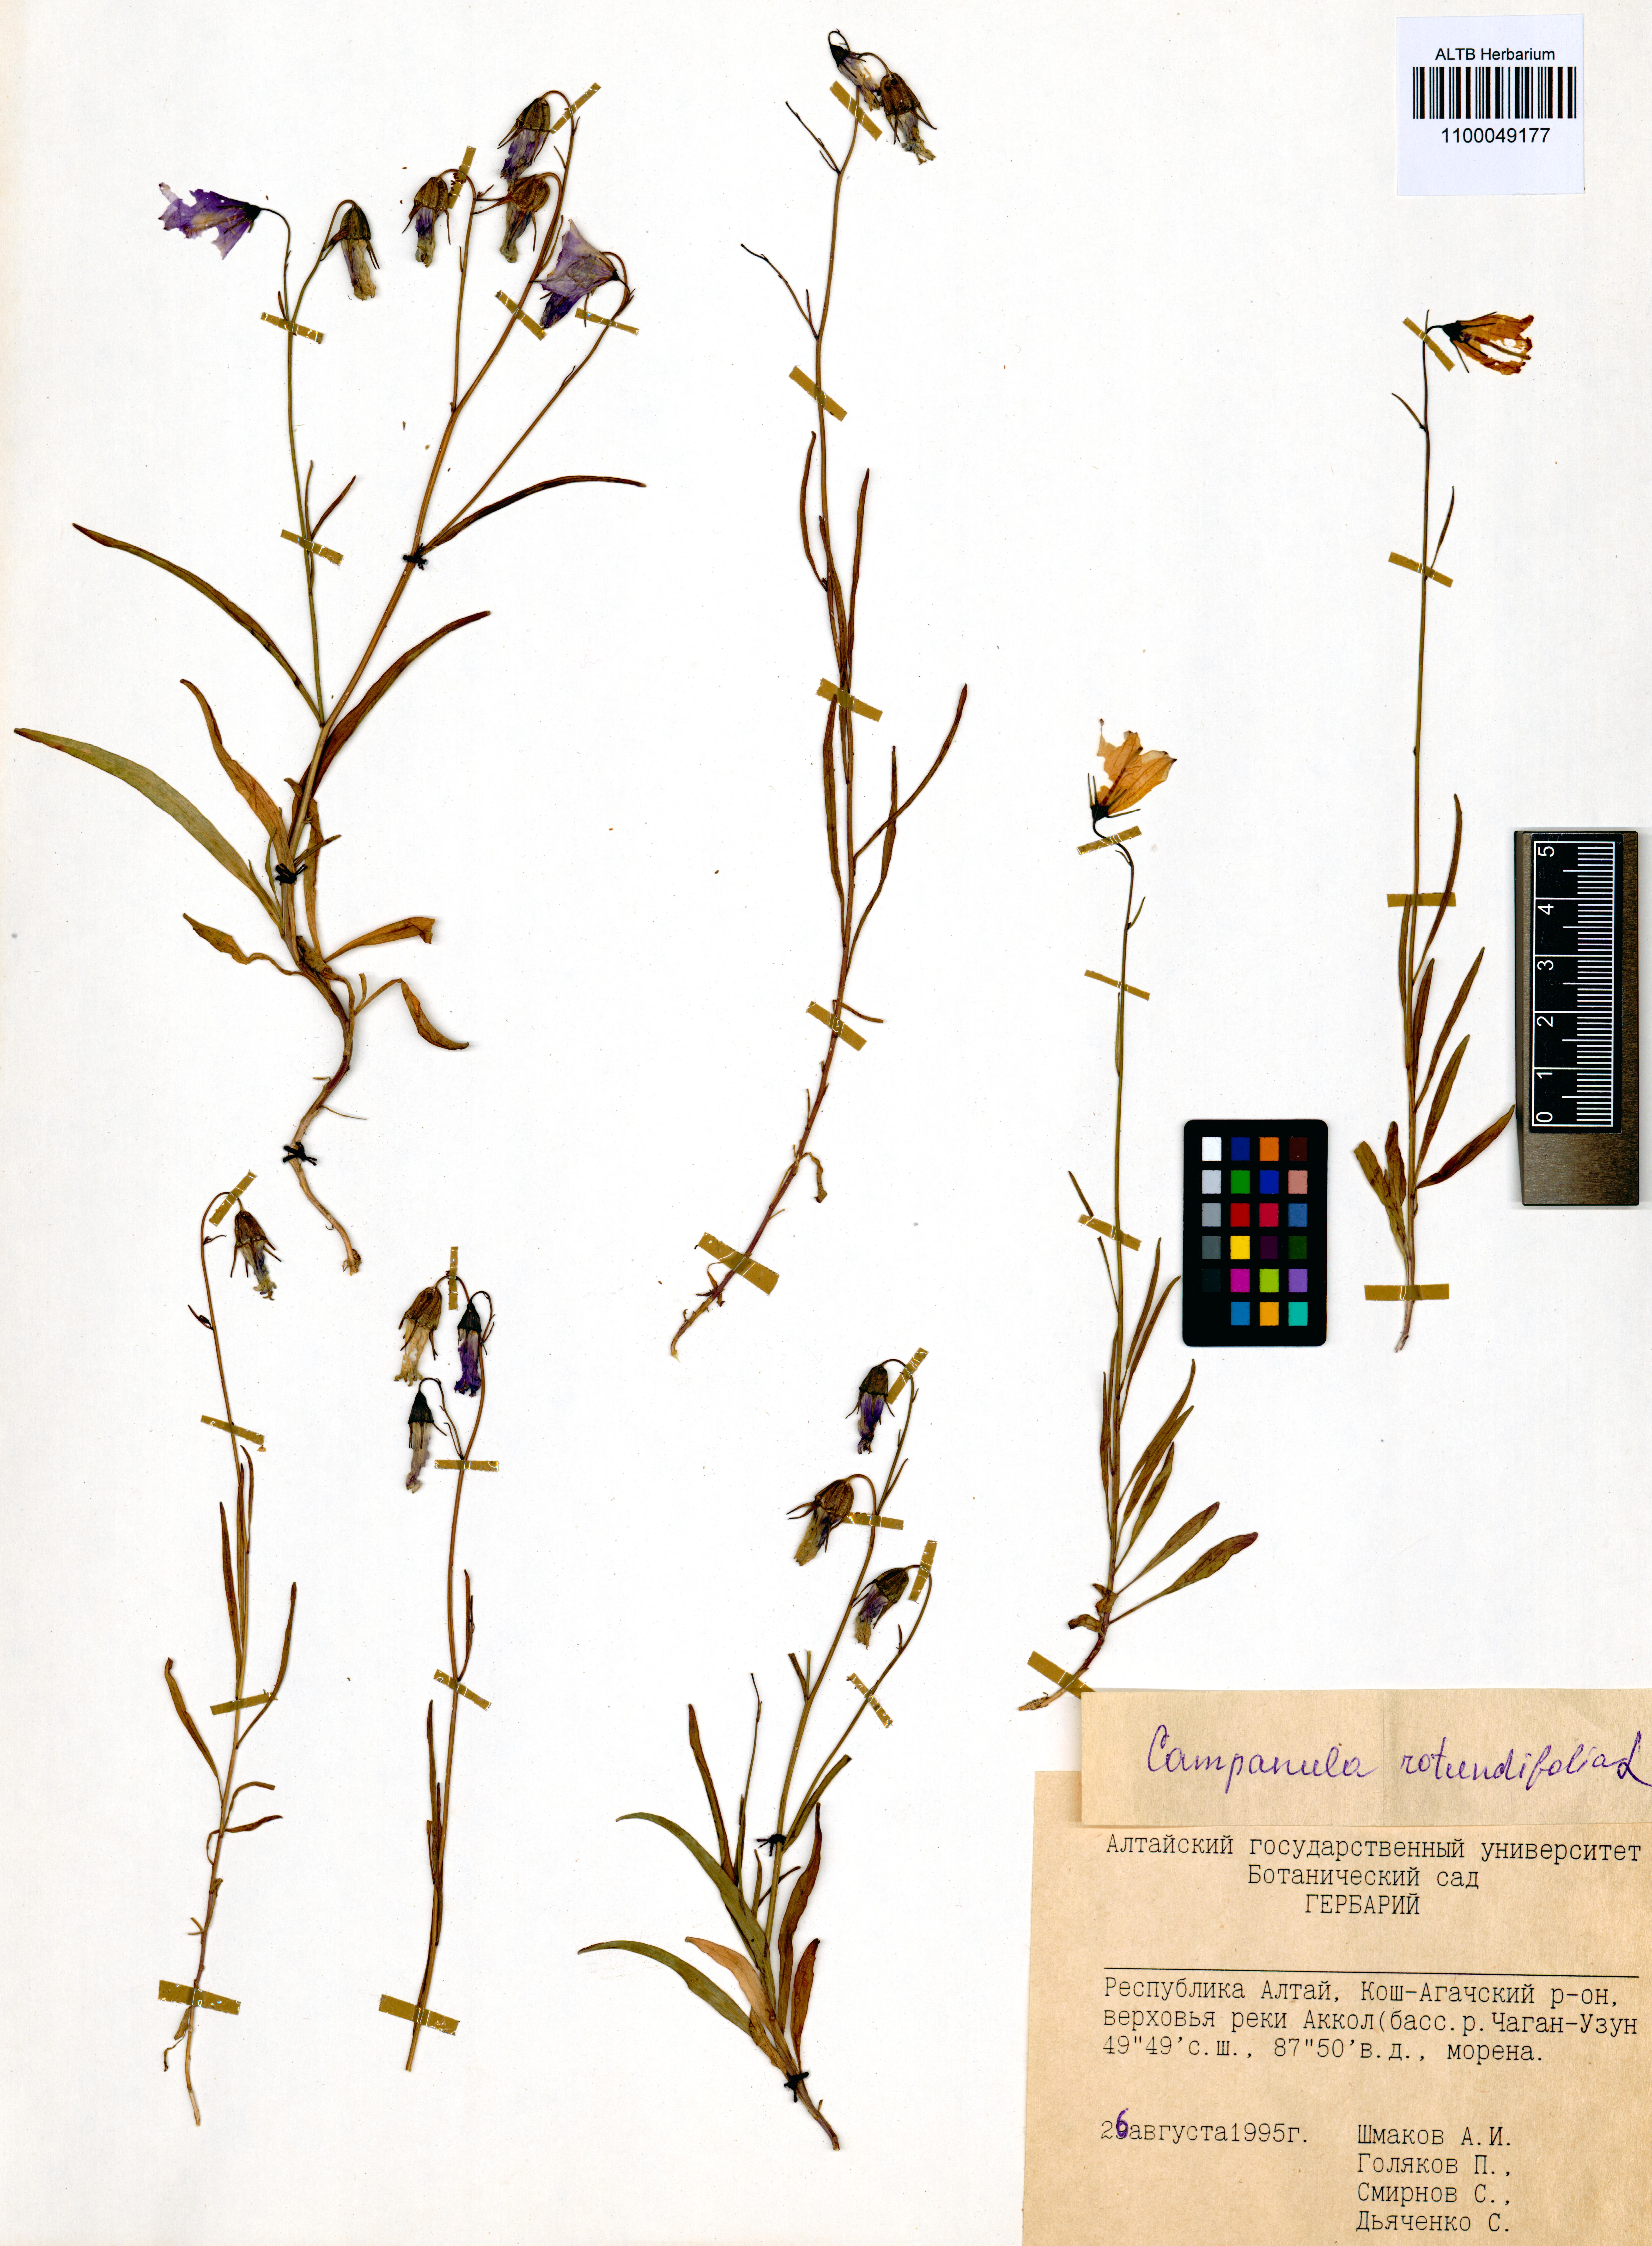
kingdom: Plantae
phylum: Tracheophyta
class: Magnoliopsida
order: Asterales
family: Campanulaceae
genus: Campanula
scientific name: Campanula rotundifolia
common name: Harebell
